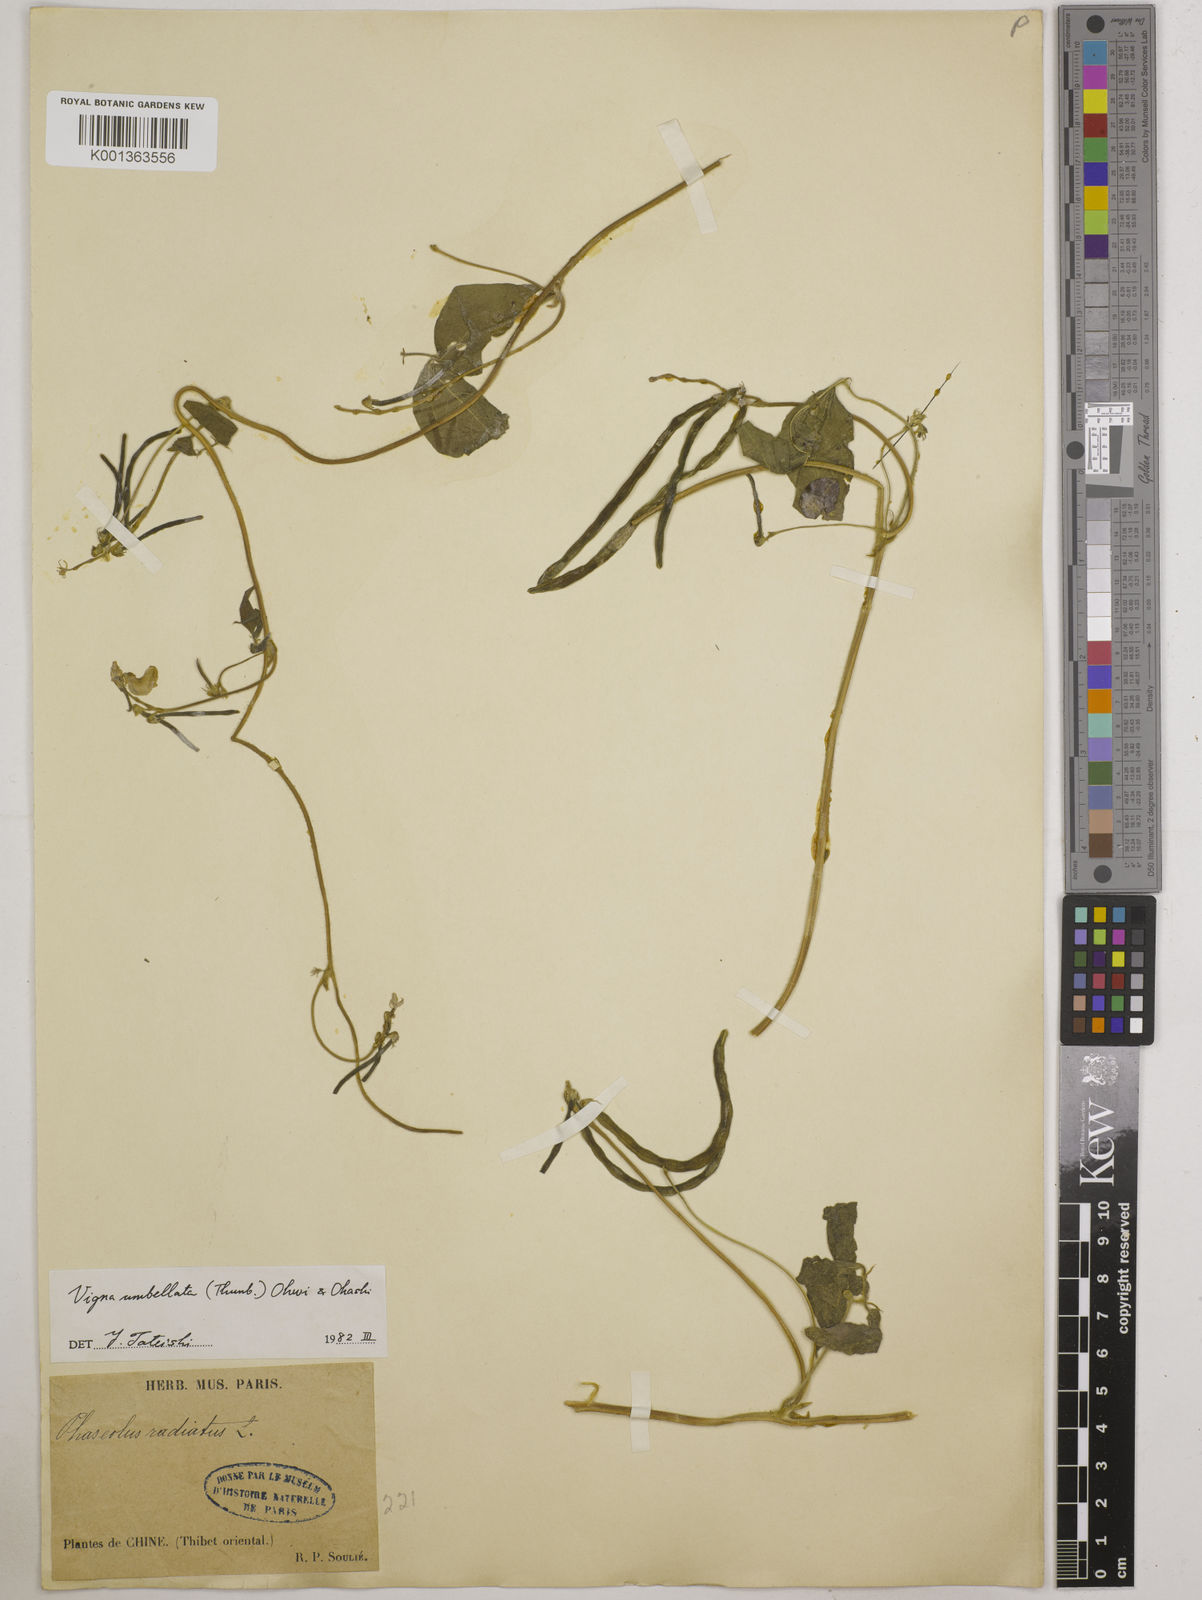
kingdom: Plantae
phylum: Tracheophyta
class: Magnoliopsida
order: Fabales
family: Fabaceae
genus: Vigna
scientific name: Vigna umbellata
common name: Oriental-bean
